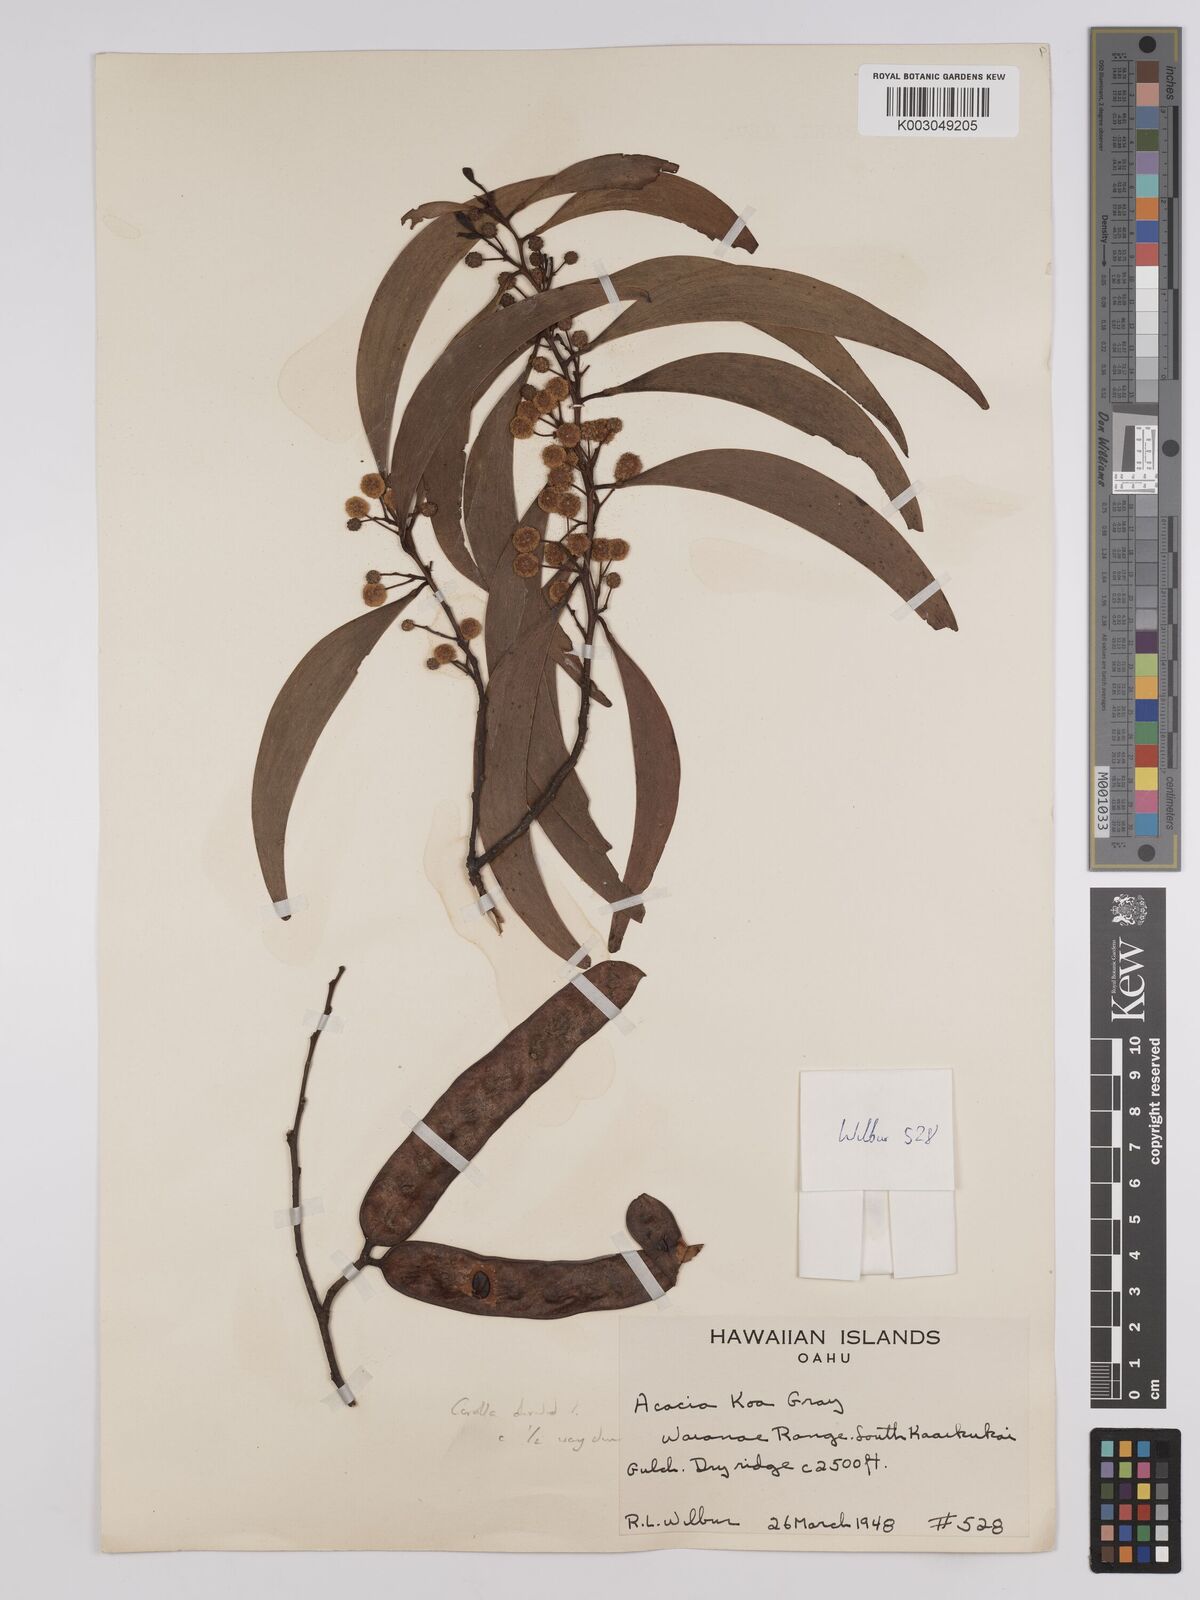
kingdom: Plantae
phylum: Tracheophyta
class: Magnoliopsida
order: Fabales
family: Fabaceae
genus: Acacia
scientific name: Acacia koa
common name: Gray koa
